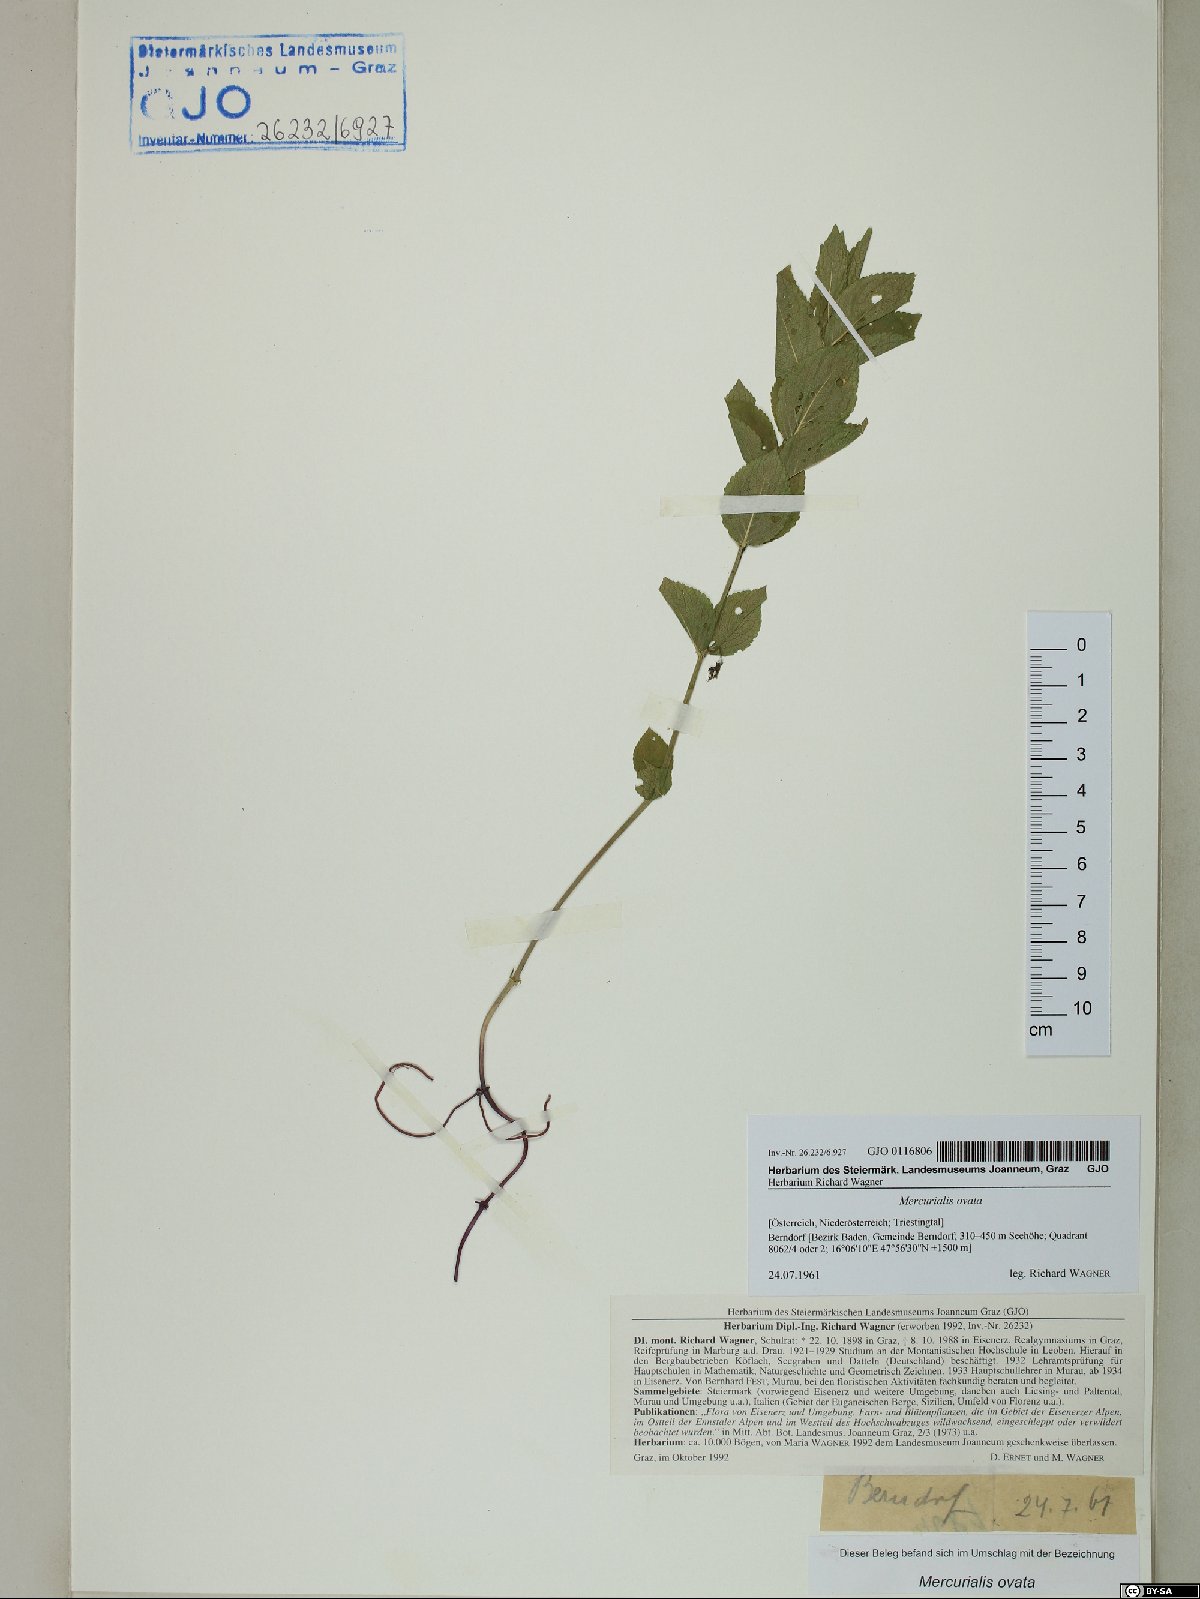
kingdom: Plantae
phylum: Tracheophyta
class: Magnoliopsida
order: Malpighiales
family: Euphorbiaceae
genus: Mercurialis
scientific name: Mercurialis ovata
